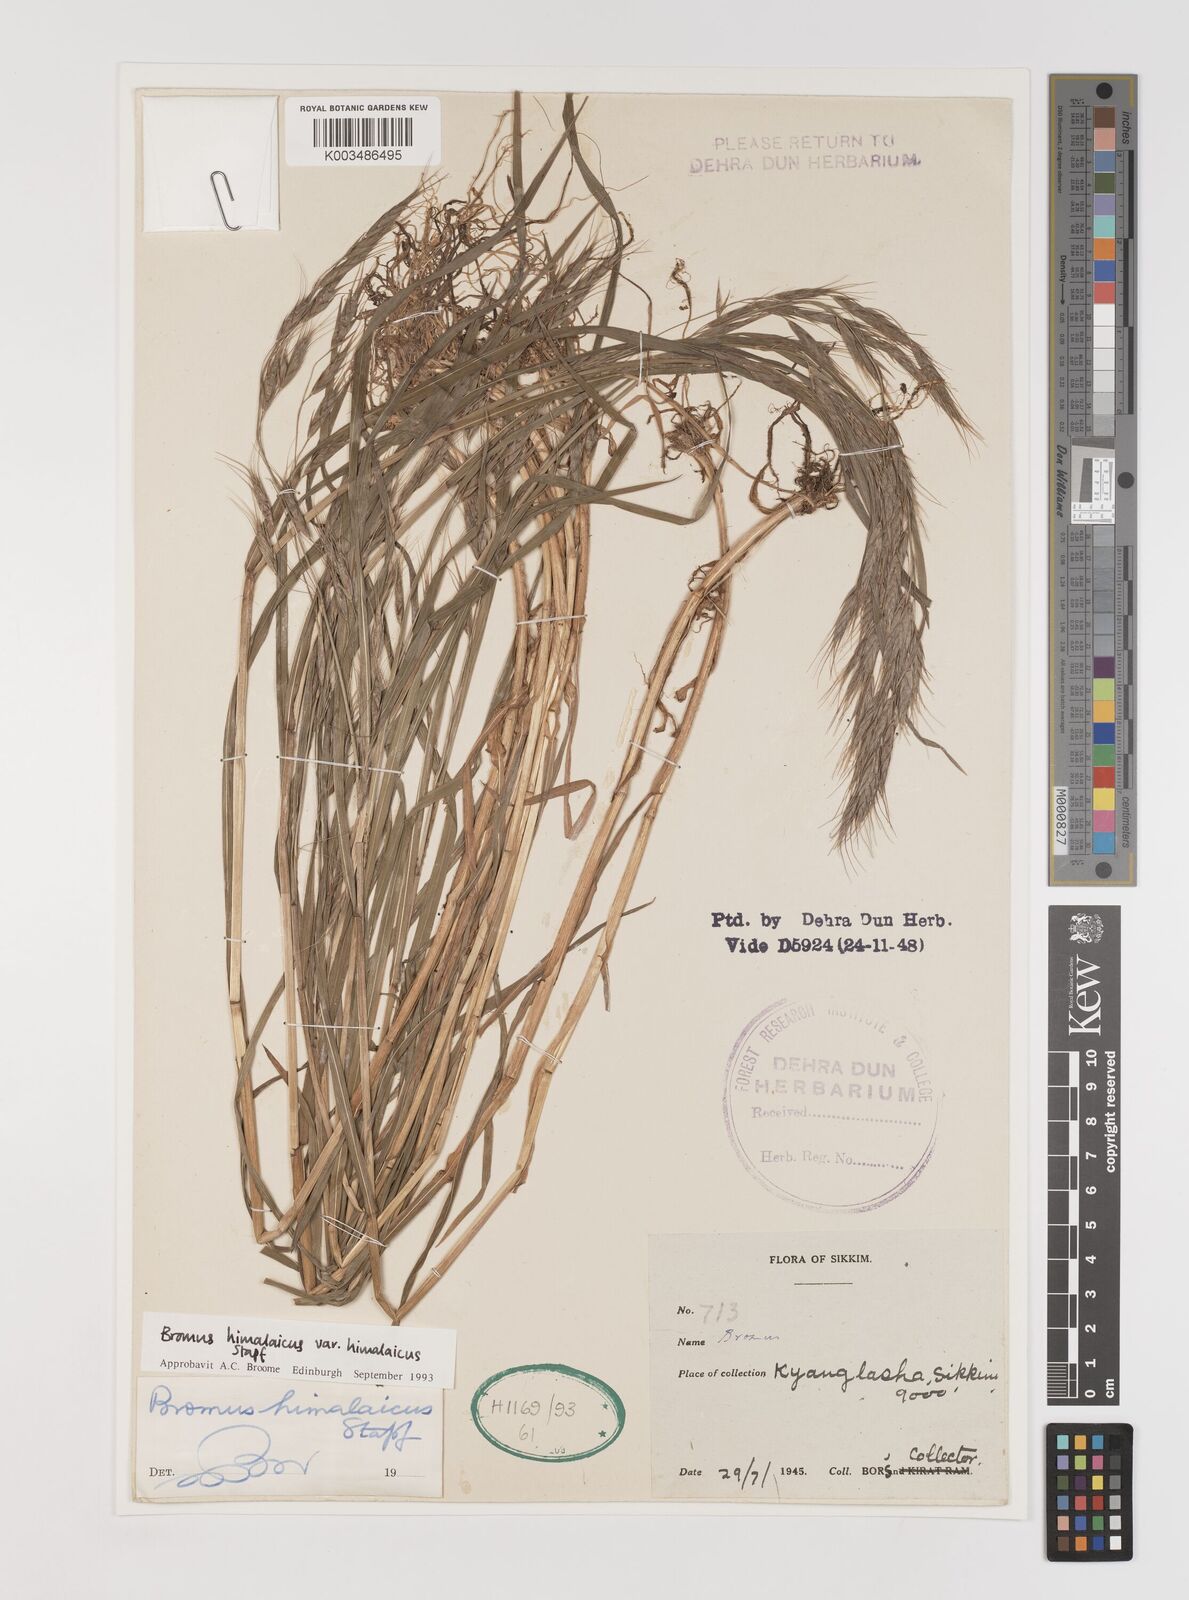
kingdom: Plantae
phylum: Tracheophyta
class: Liliopsida
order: Poales
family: Poaceae
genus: Bromus
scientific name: Bromus himalaicus
